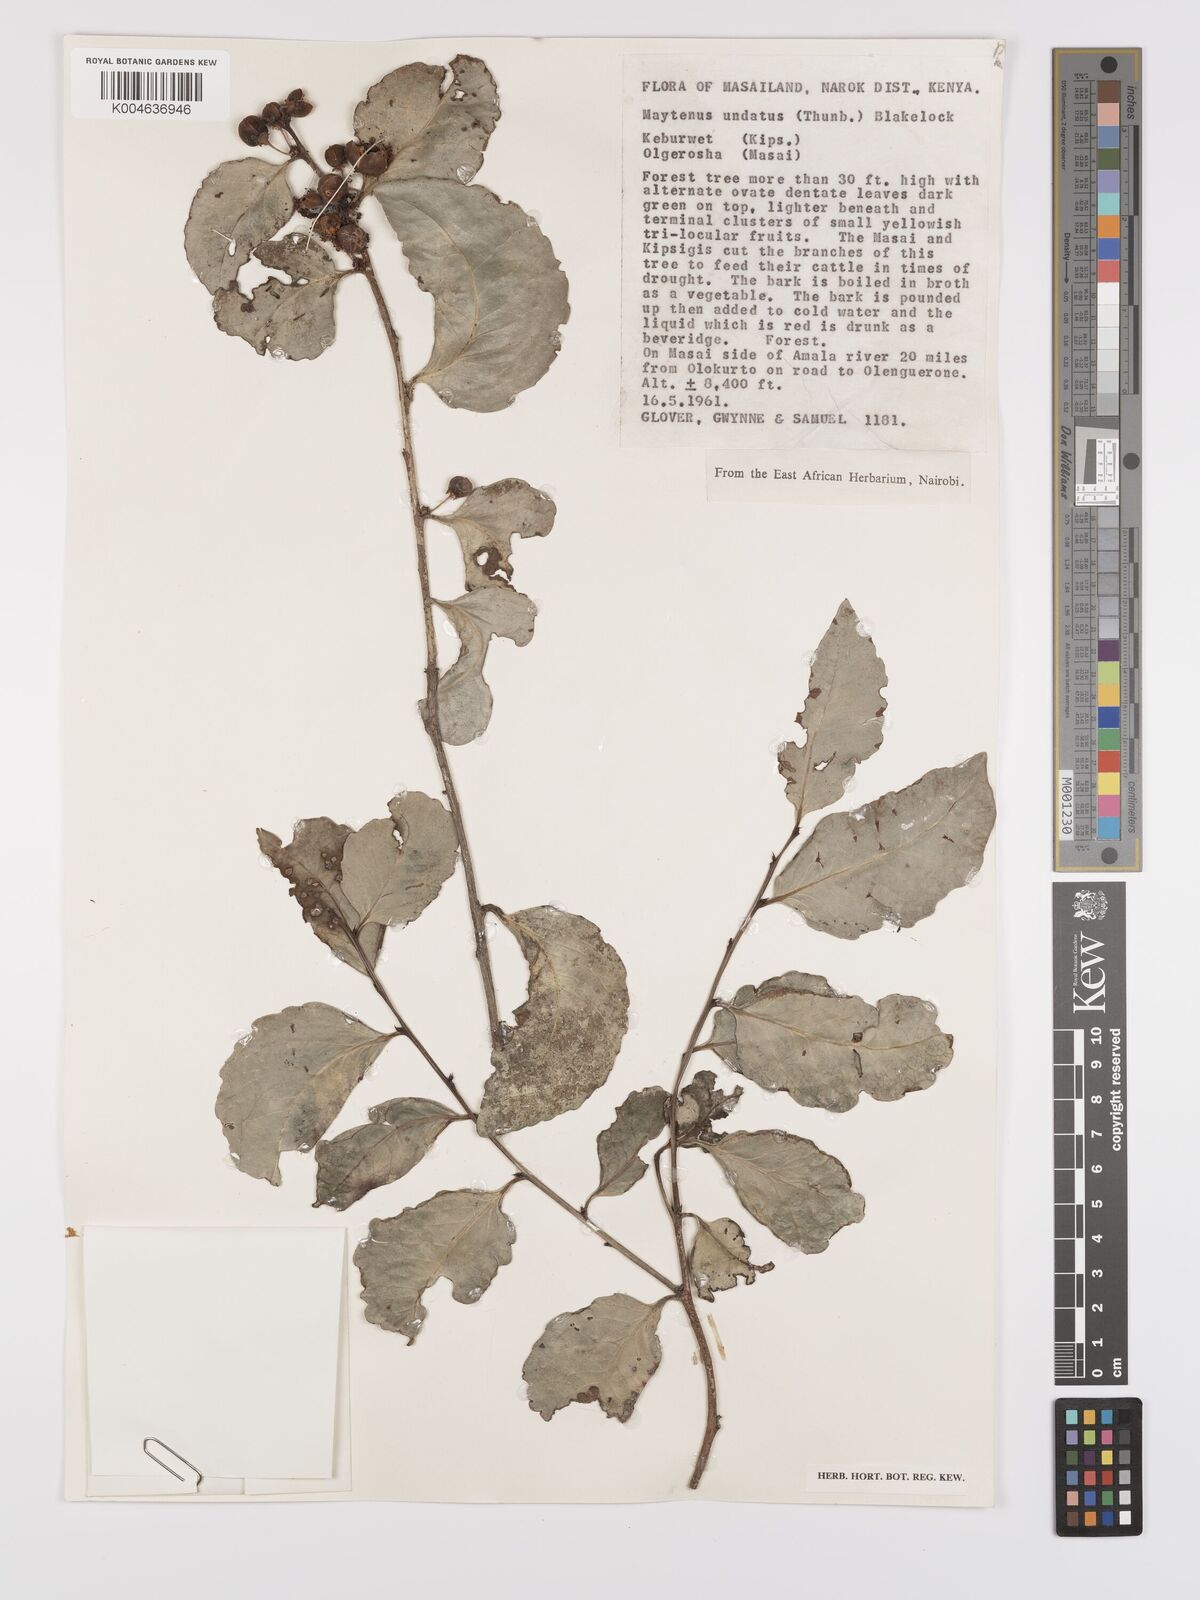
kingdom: Plantae
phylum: Tracheophyta
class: Magnoliopsida
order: Celastrales
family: Celastraceae
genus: Gymnosporia
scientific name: Gymnosporia undata
